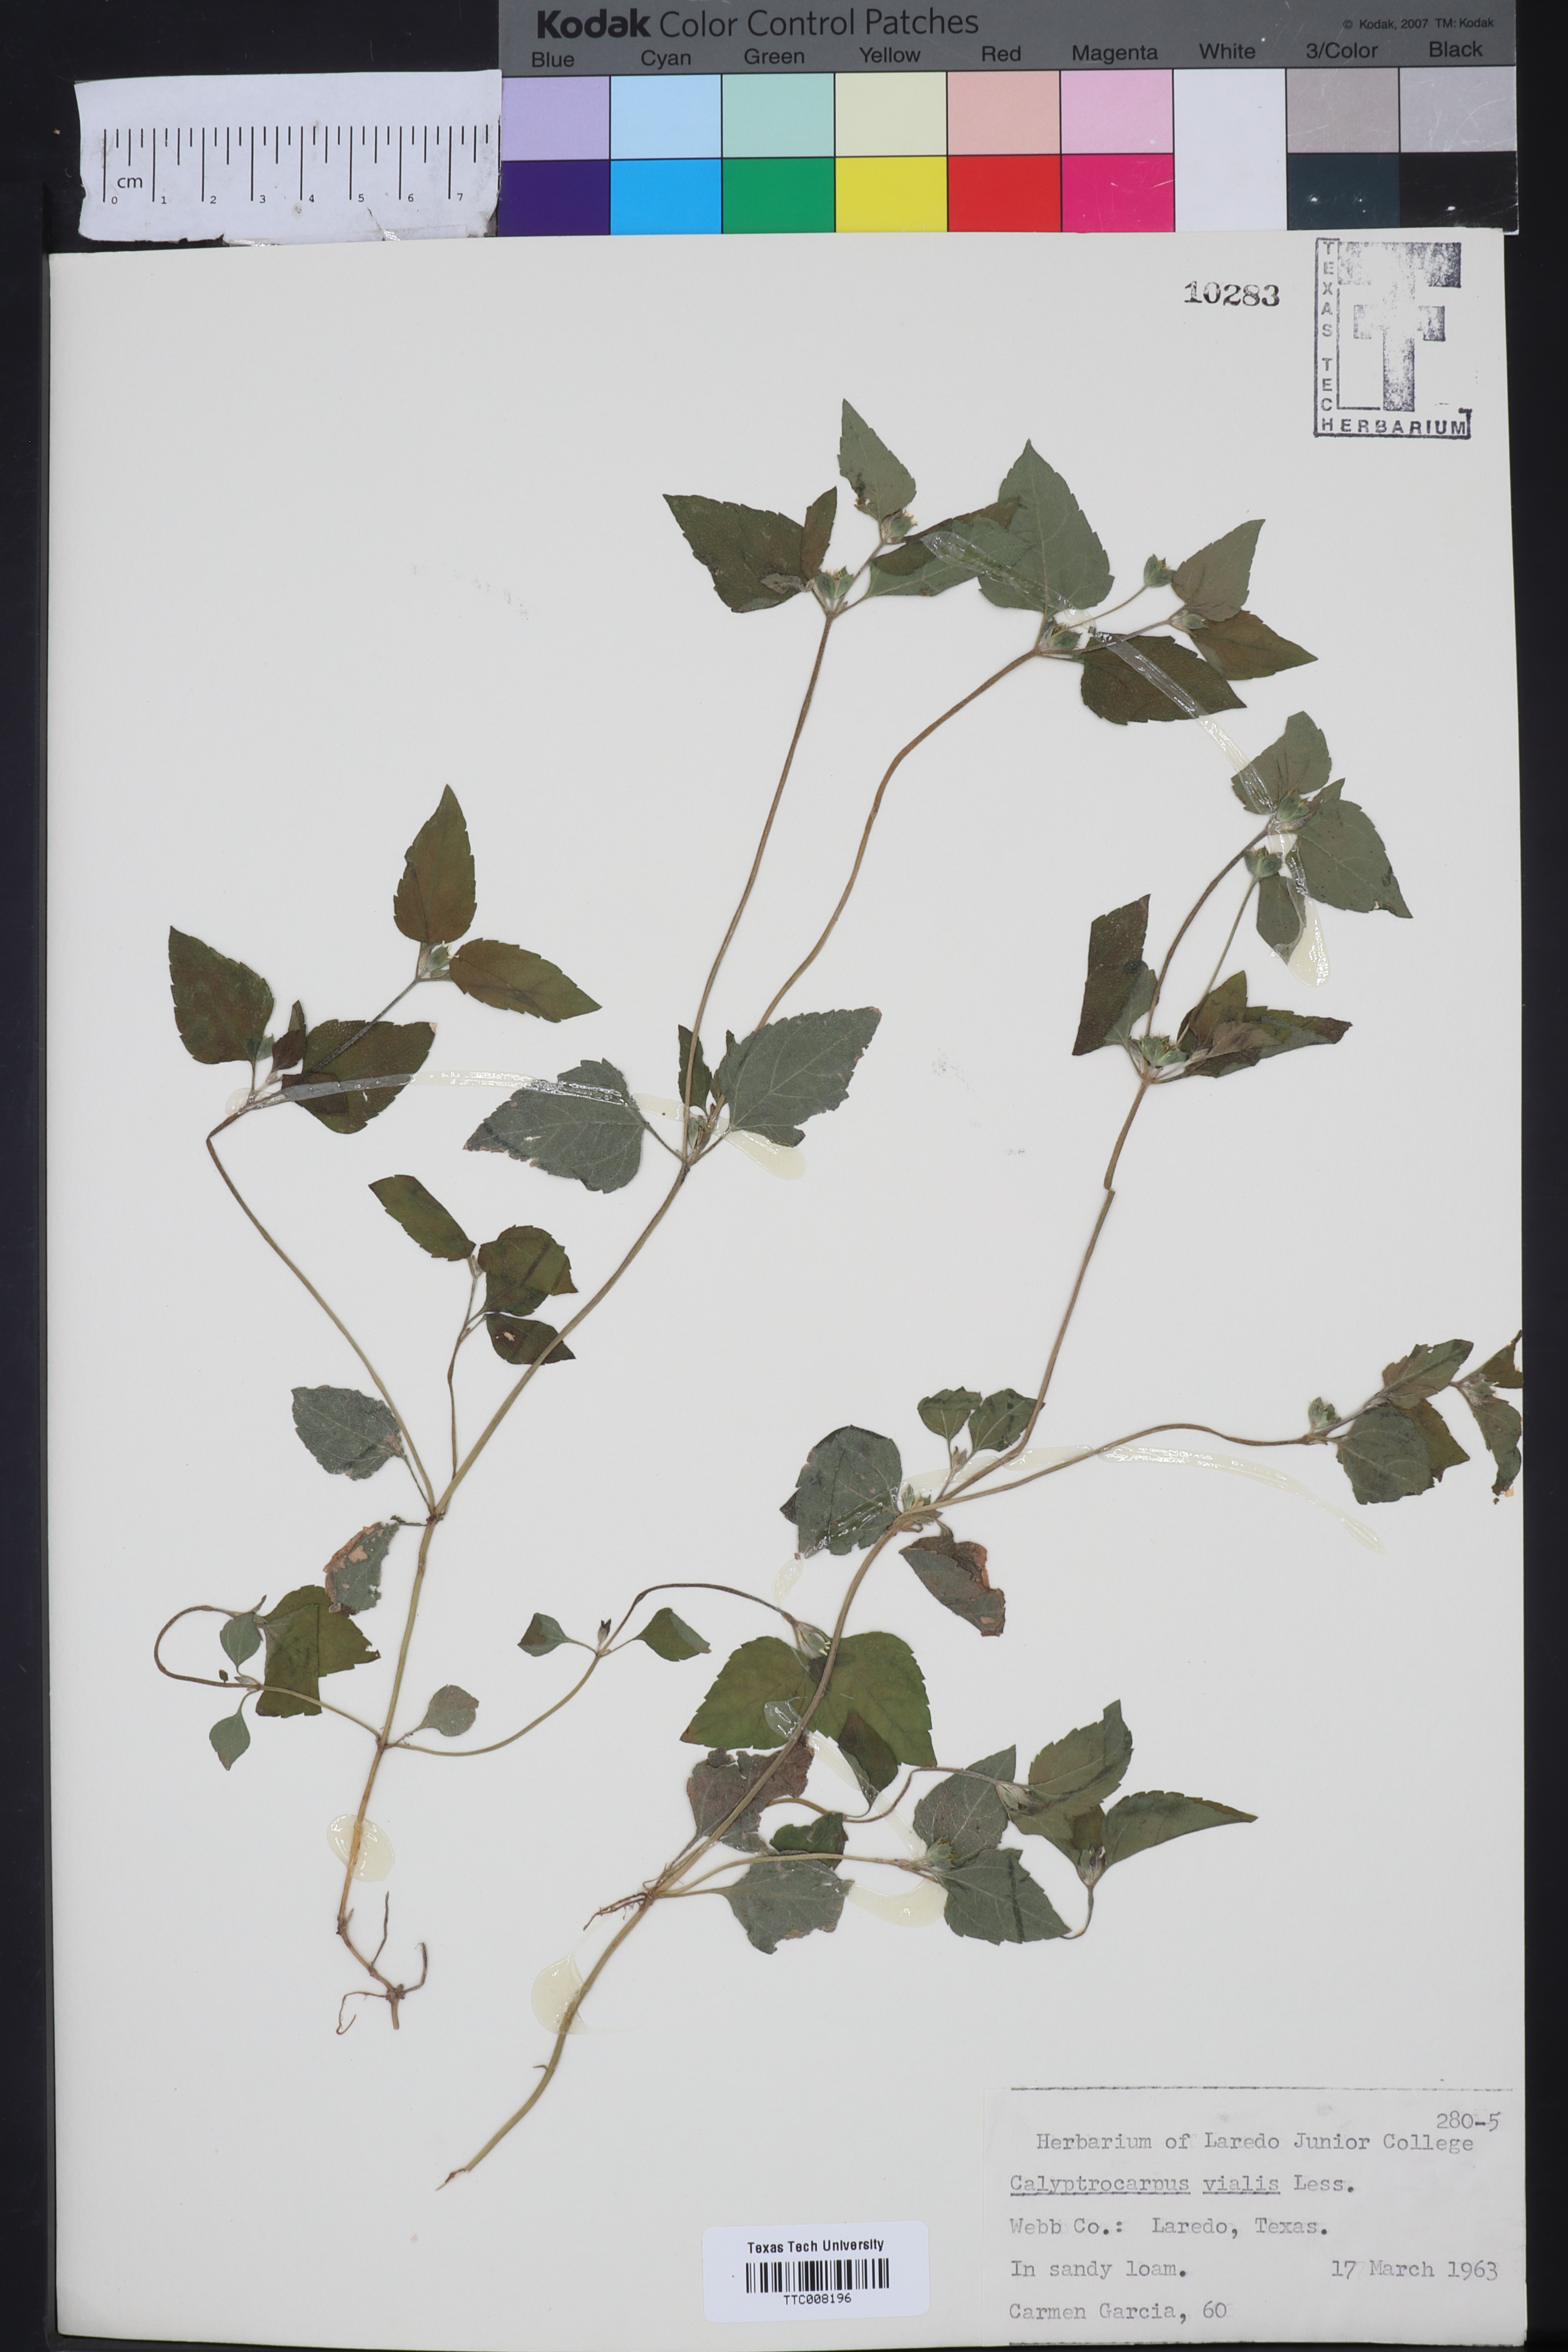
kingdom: Plantae
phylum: Tracheophyta
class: Magnoliopsida
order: Asterales
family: Asteraceae
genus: Calyptocarpus
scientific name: Calyptocarpus vialis
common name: Straggler daisy
